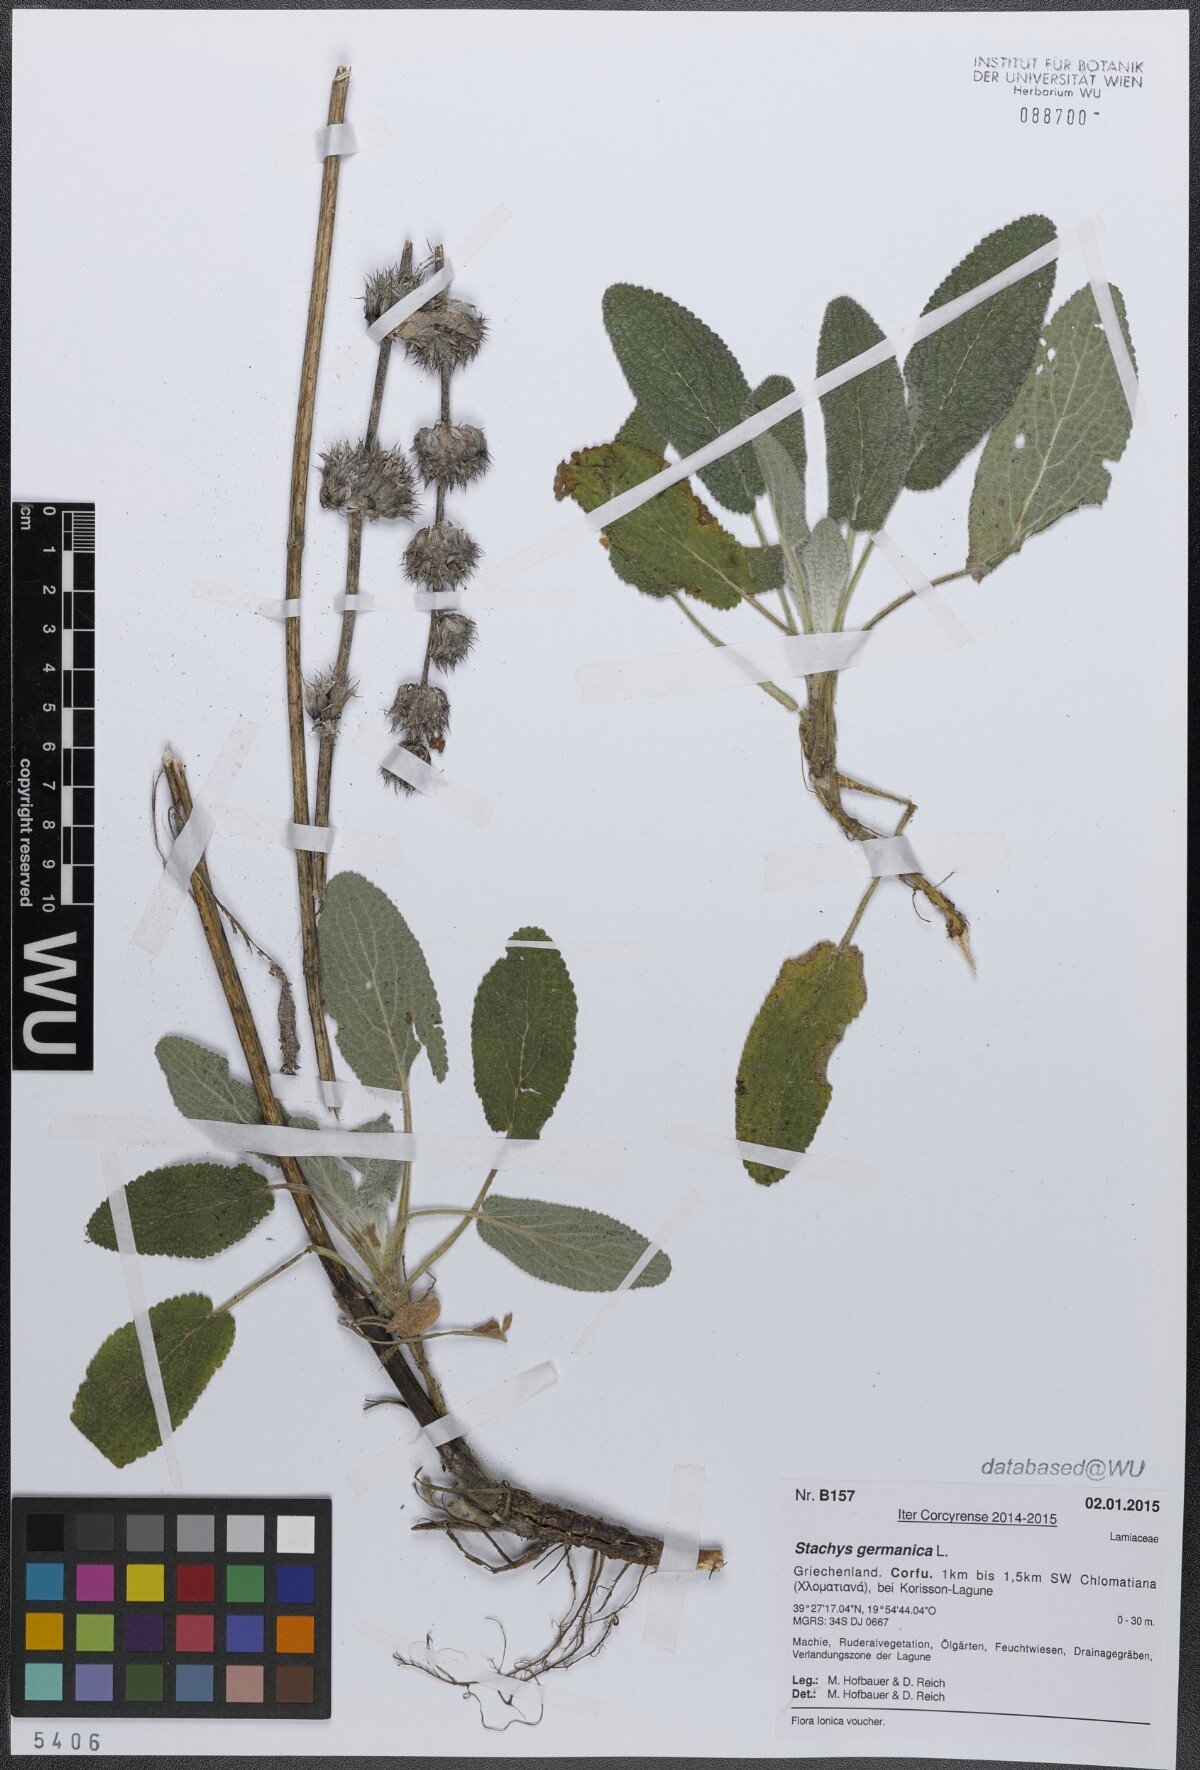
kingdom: Plantae
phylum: Tracheophyta
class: Magnoliopsida
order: Lamiales
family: Lamiaceae
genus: Stachys
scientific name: Stachys germanica
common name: Downy woundwort
